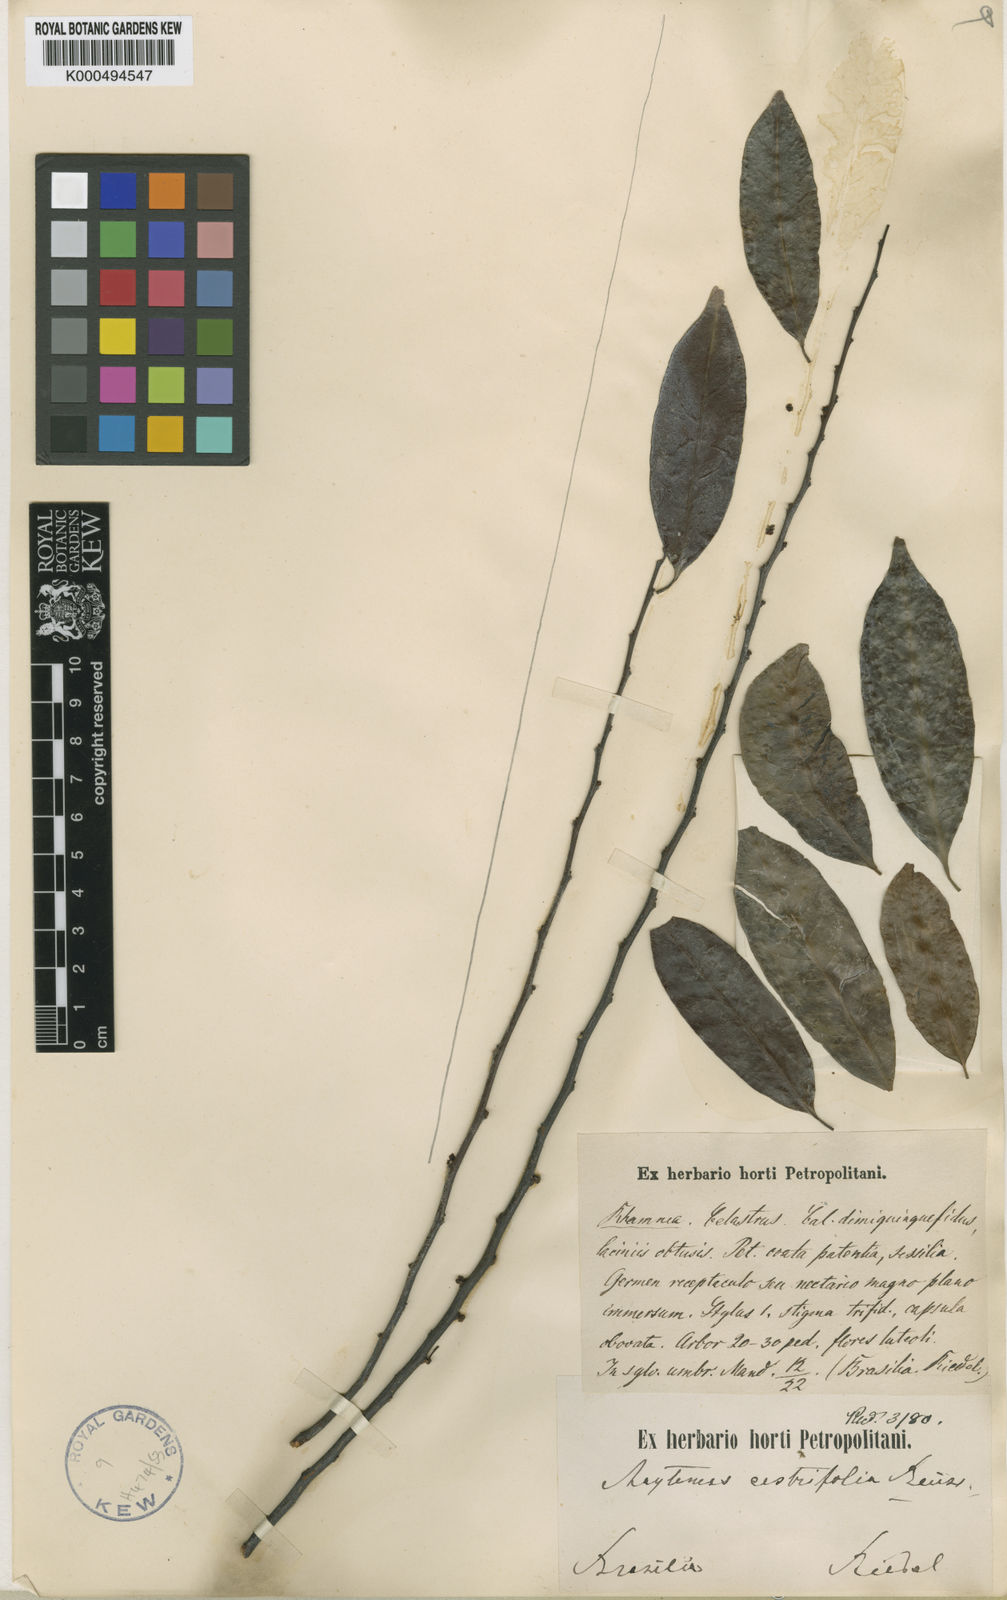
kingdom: Plantae
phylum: Tracheophyta
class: Magnoliopsida
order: Celastrales
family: Celastraceae
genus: Monteverdia
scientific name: Monteverdia cestrifolia
